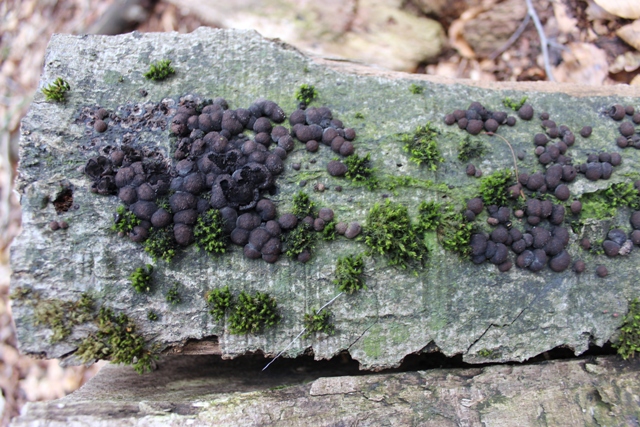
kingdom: Fungi
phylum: Ascomycota
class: Sordariomycetes
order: Xylariales
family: Hypoxylaceae
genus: Hypoxylon
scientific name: Hypoxylon fragiforme
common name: kuljordbær
